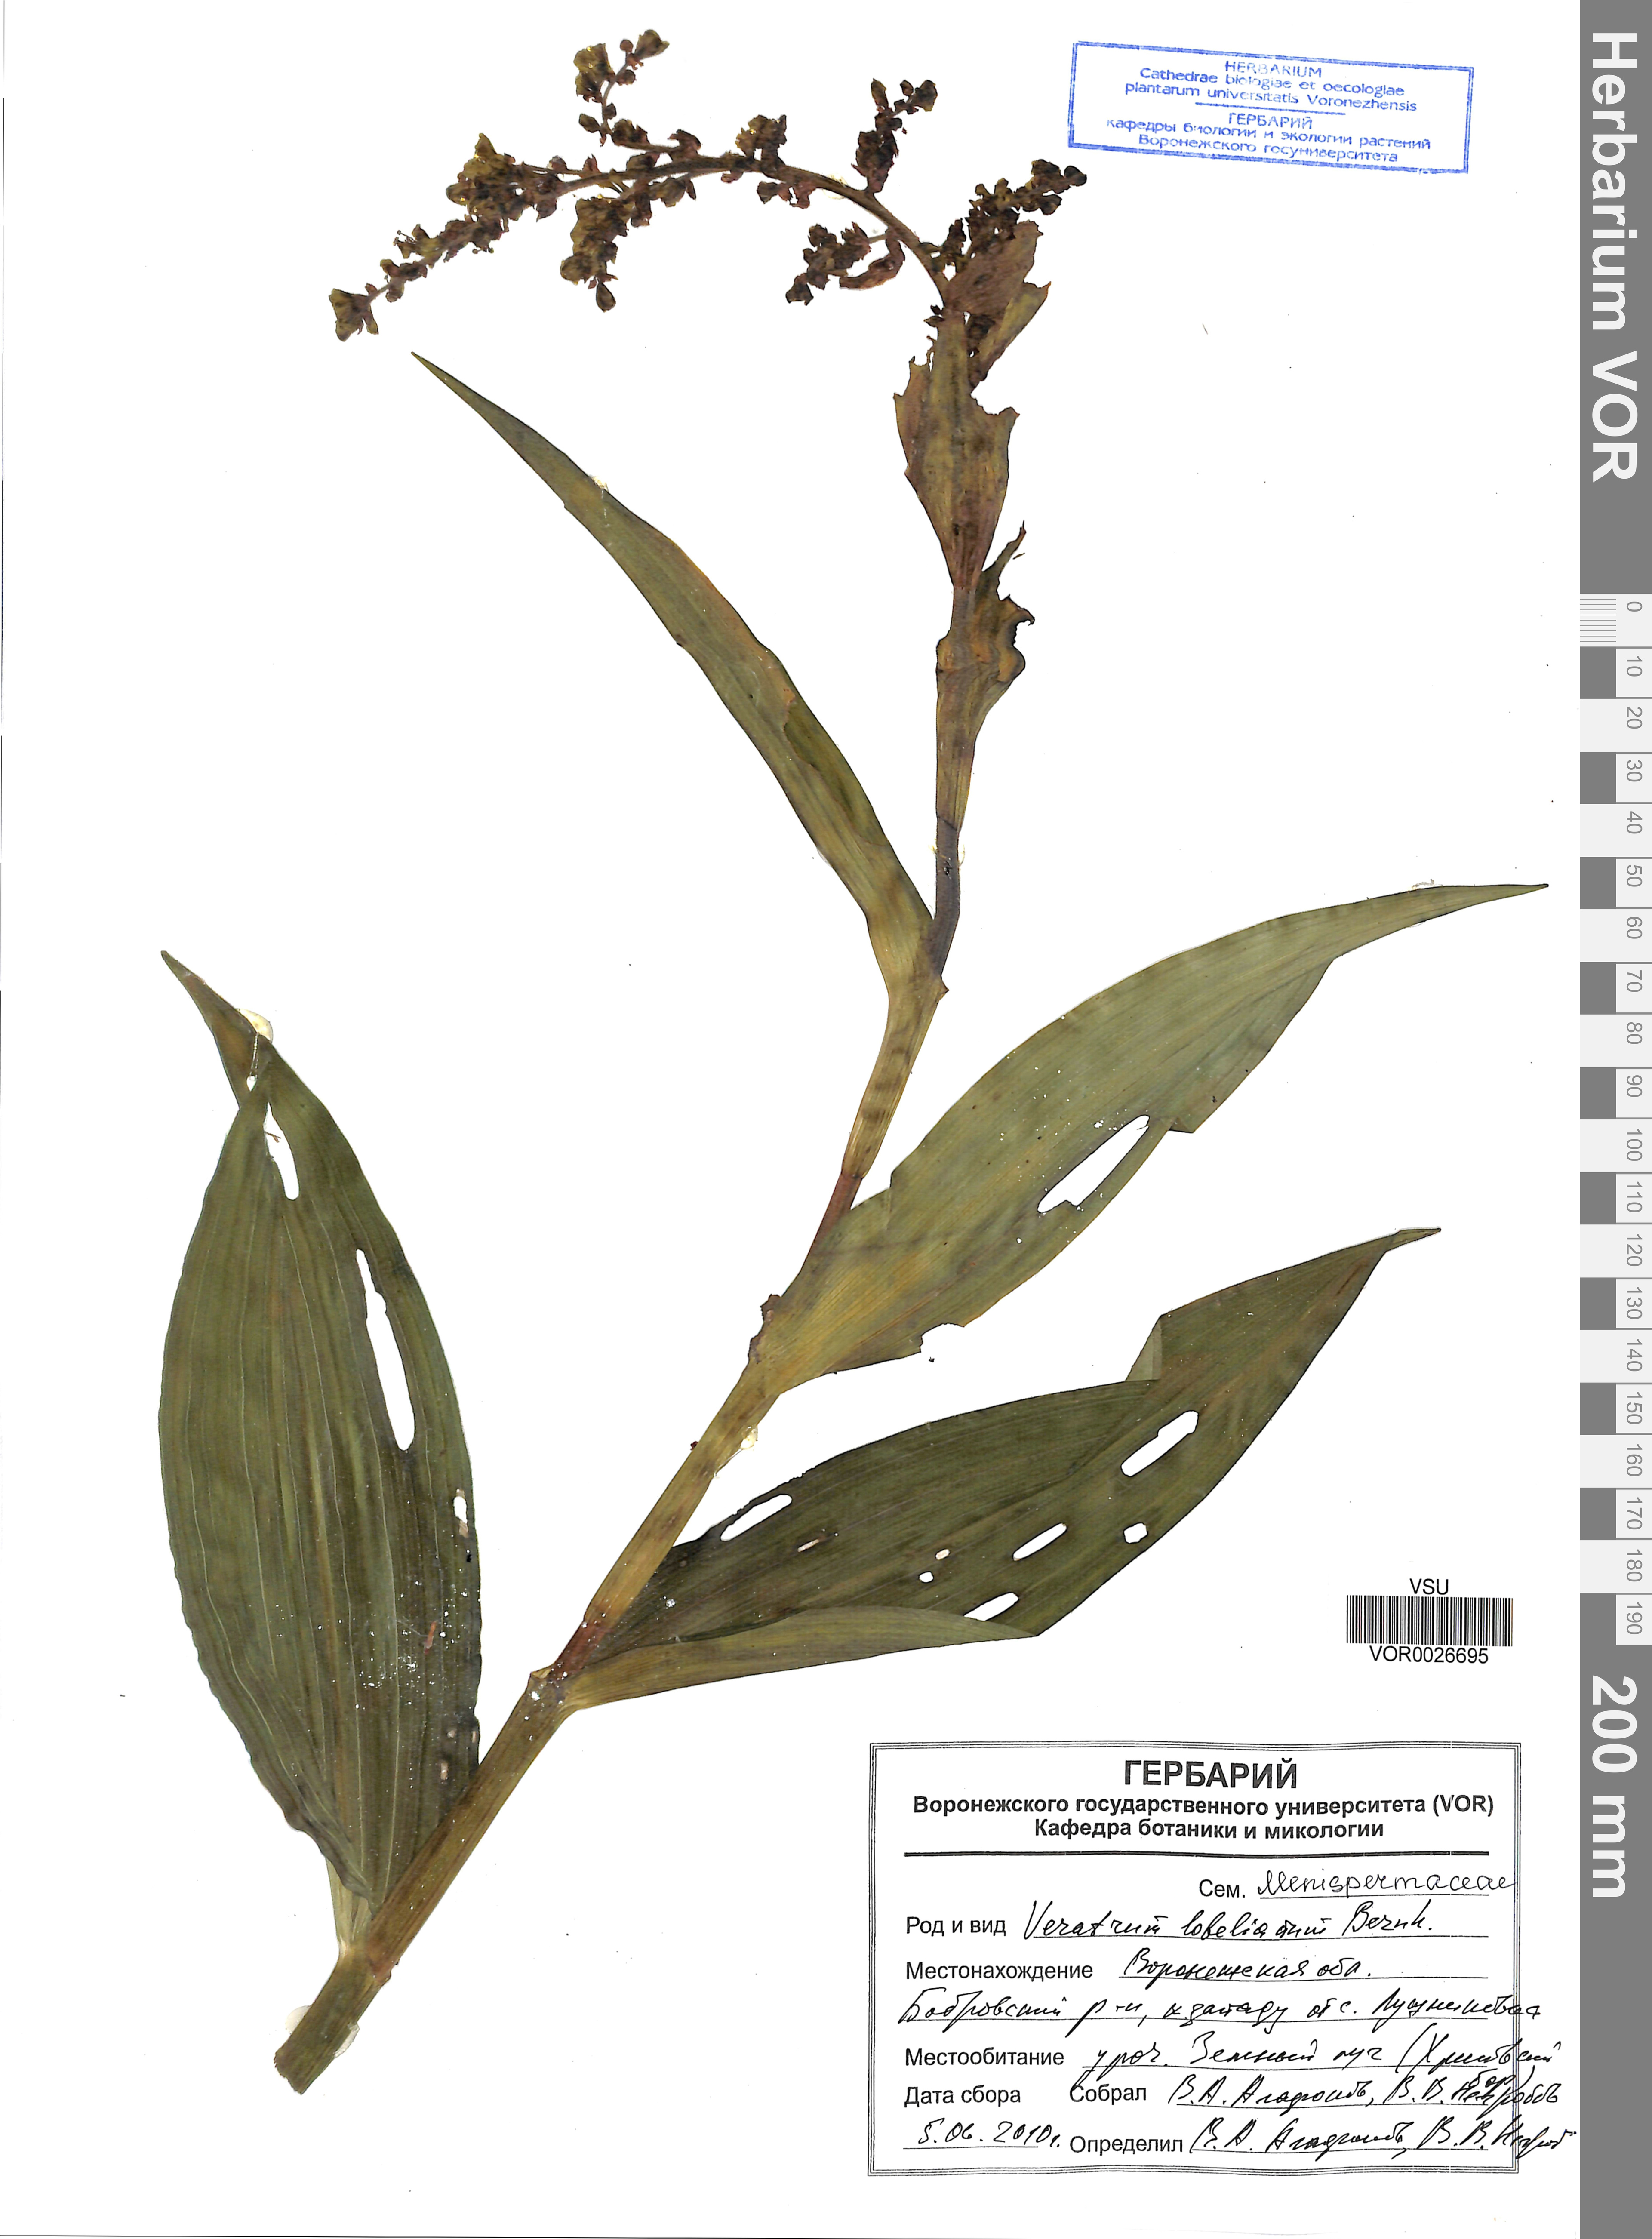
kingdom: Plantae
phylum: Tracheophyta
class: Liliopsida
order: Liliales
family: Melanthiaceae
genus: Veratrum
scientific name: Veratrum lobelianum
